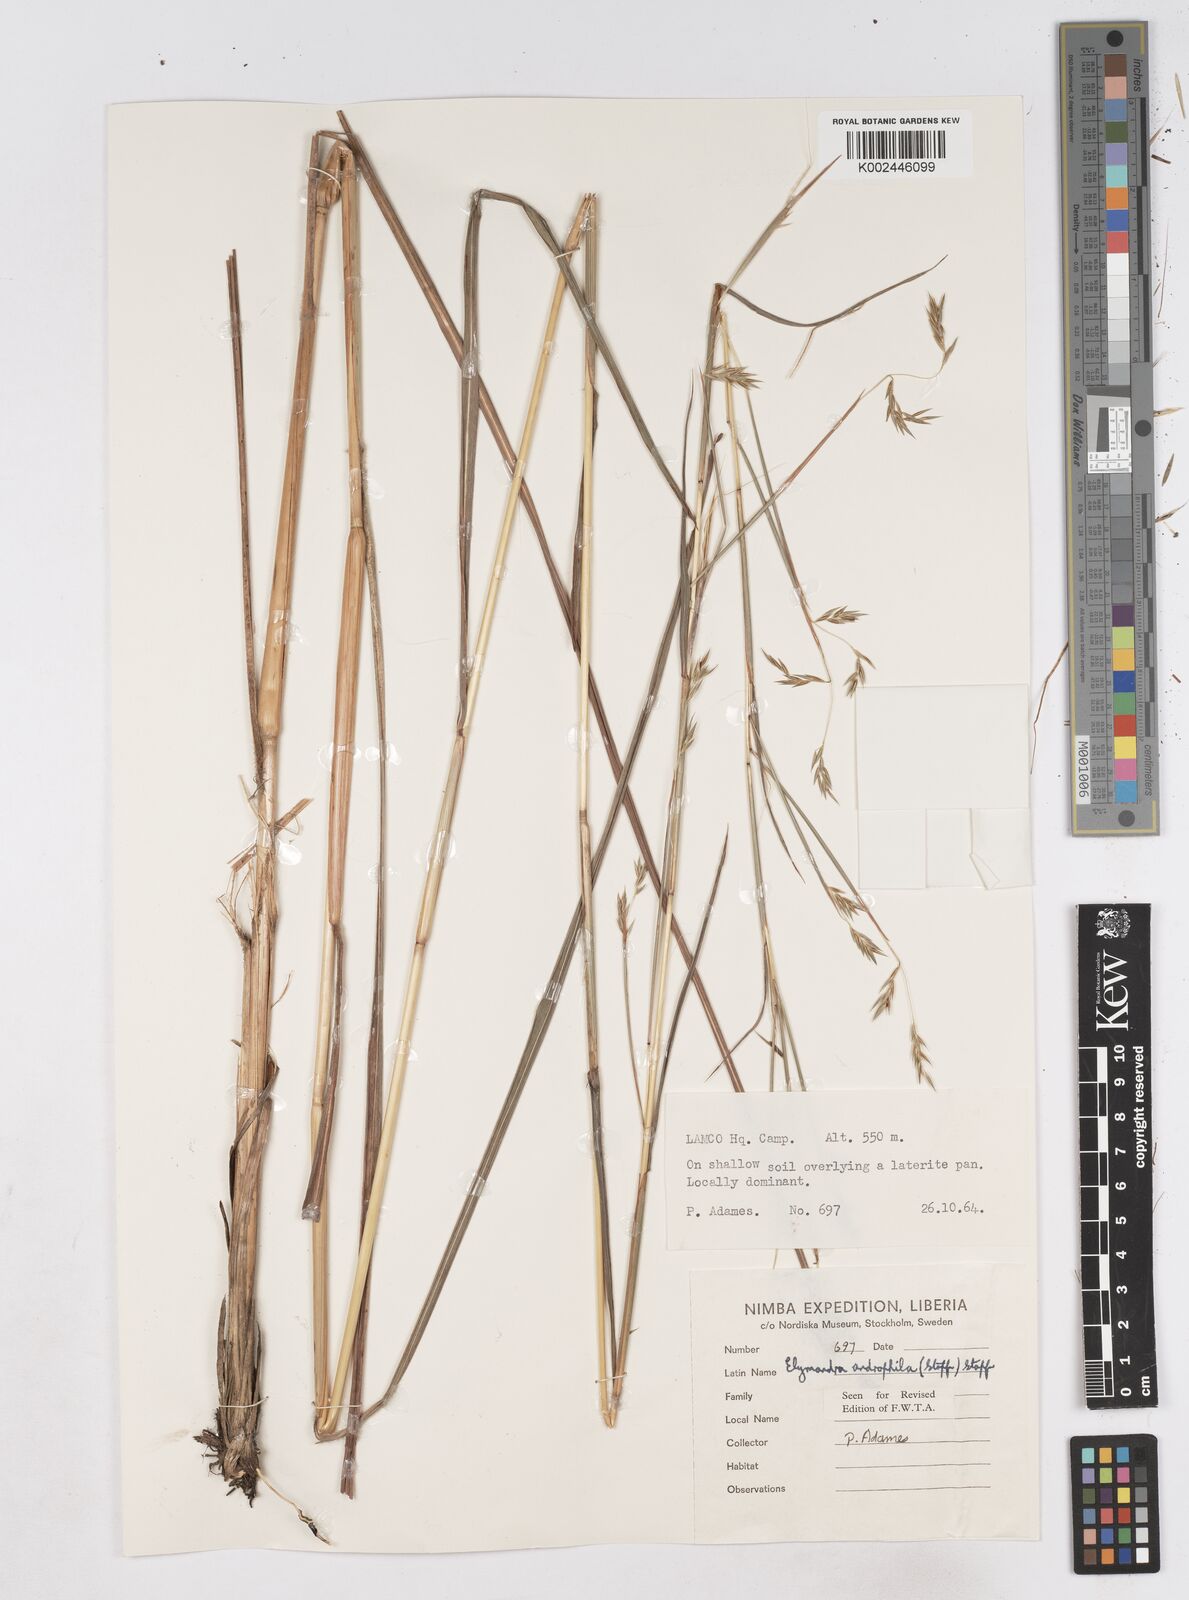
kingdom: Plantae
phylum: Tracheophyta
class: Liliopsida
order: Poales
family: Poaceae
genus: Elymandra
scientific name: Elymandra androphila
